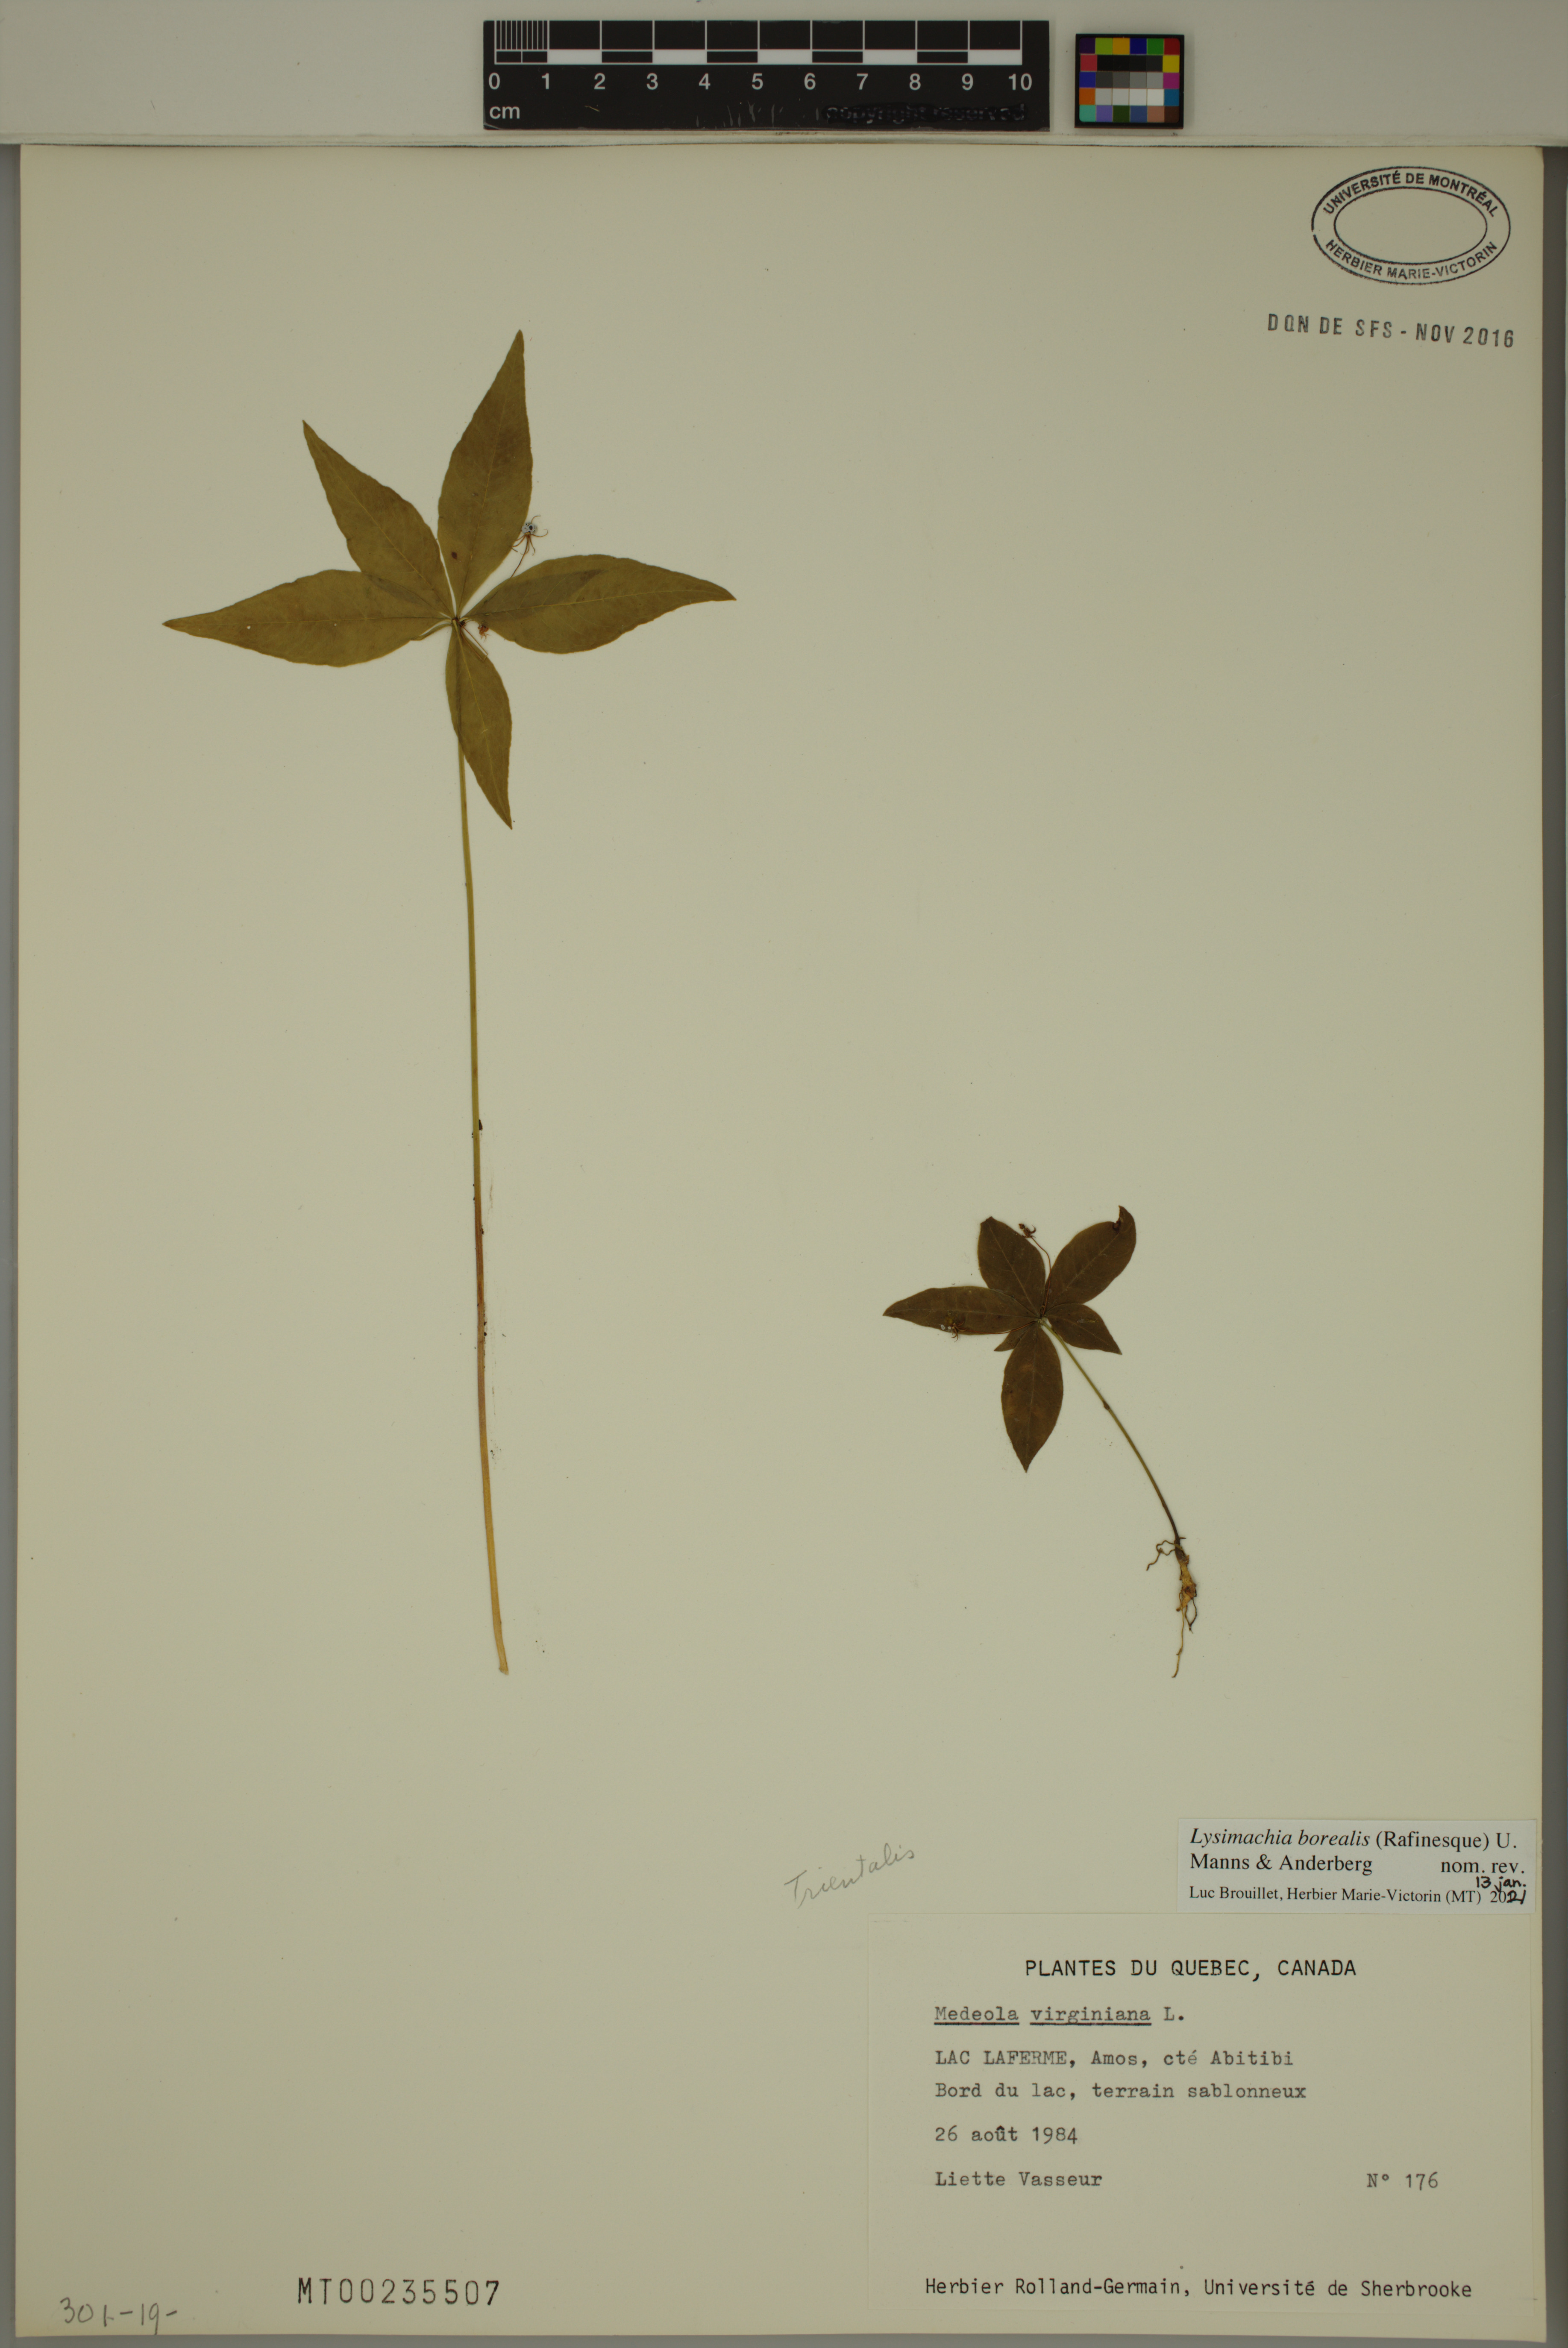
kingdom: Plantae
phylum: Tracheophyta
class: Magnoliopsida
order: Ericales
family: Primulaceae
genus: Lysimachia
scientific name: Lysimachia borealis
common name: American starflower
